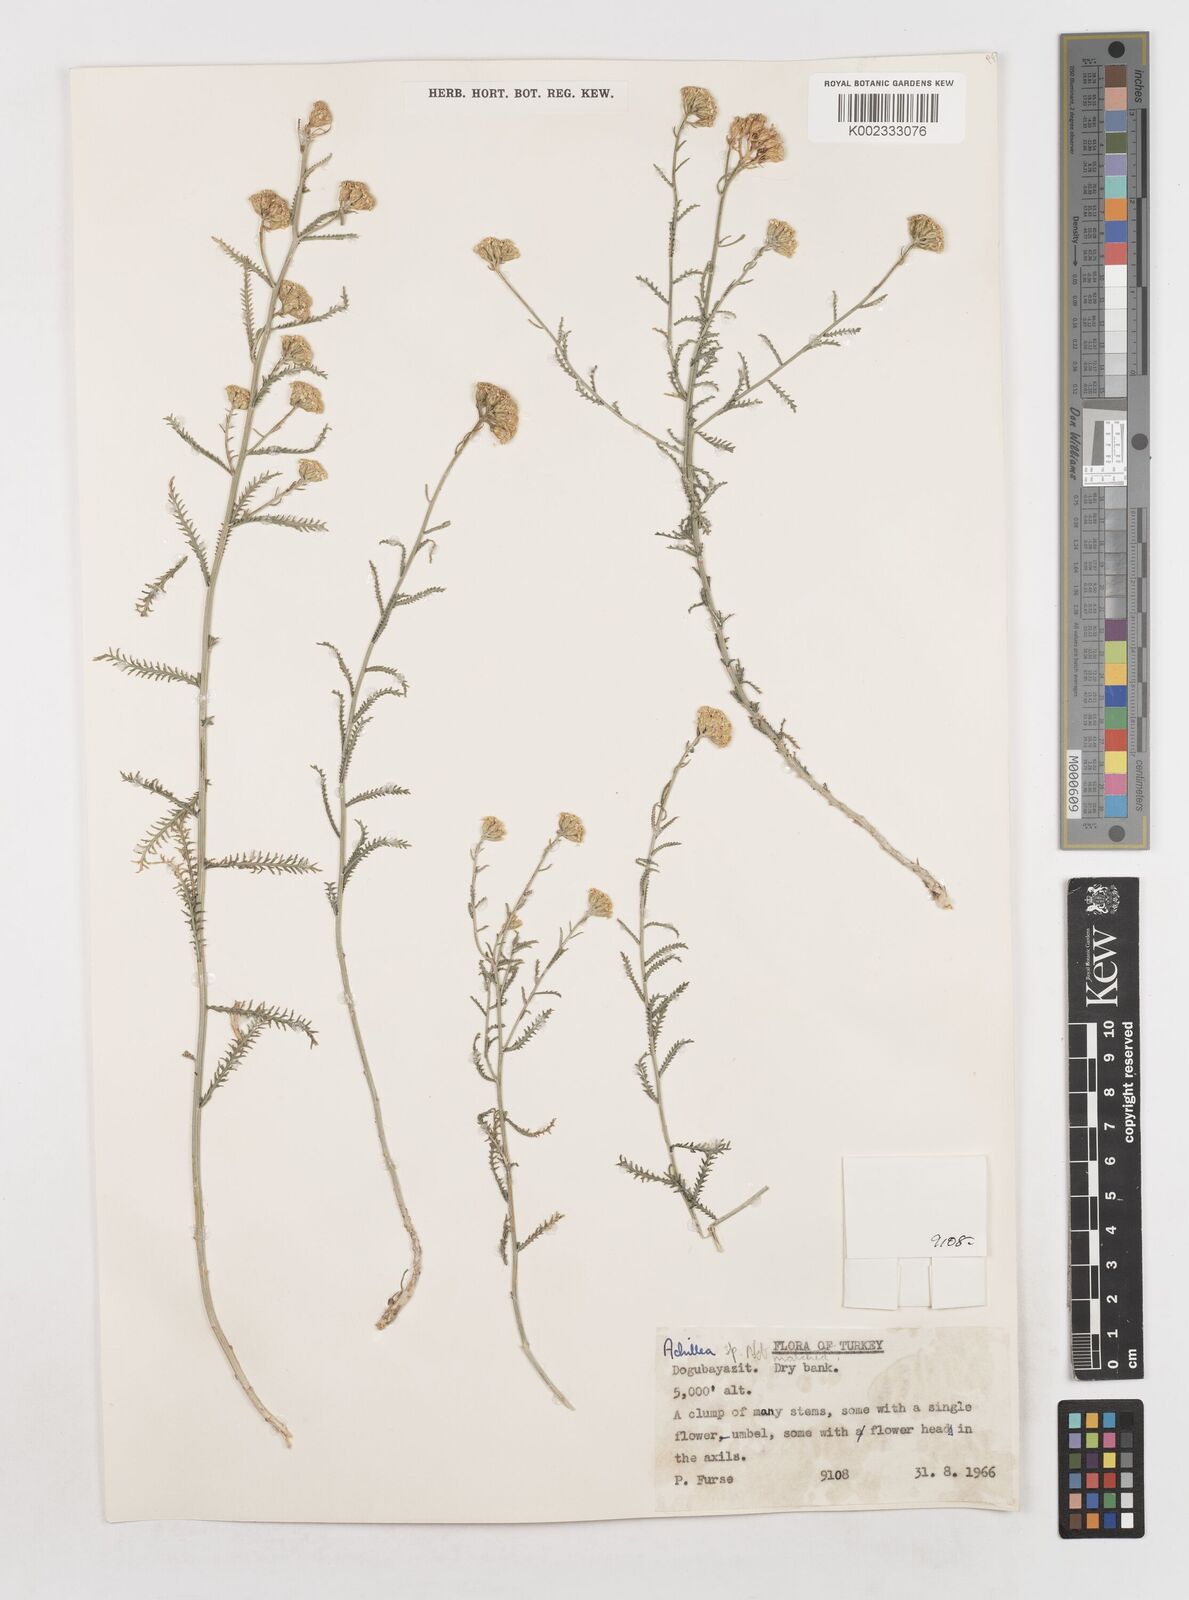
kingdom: Plantae
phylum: Tracheophyta
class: Magnoliopsida
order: Asterales
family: Asteraceae
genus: Achillea
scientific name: Achillea
